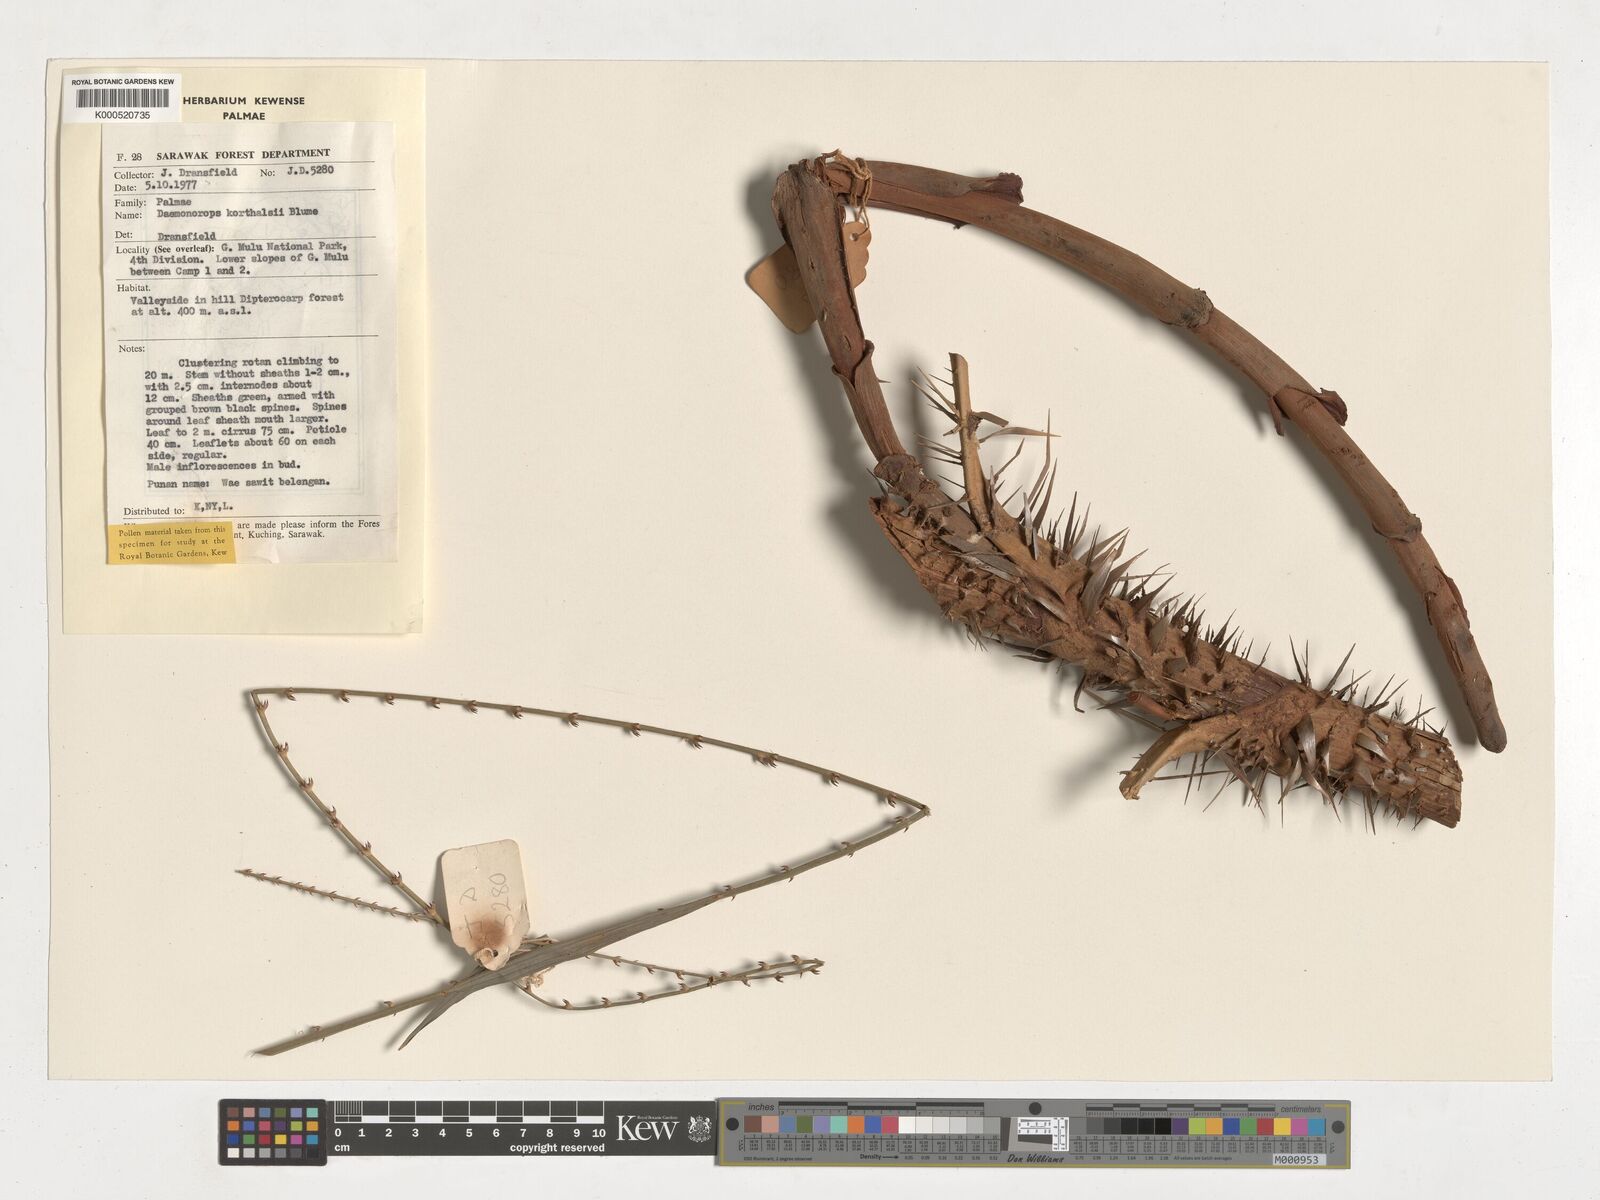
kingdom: Plantae
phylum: Tracheophyta
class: Liliopsida
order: Arecales
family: Arecaceae
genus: Calamus
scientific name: Calamus hirsutus
